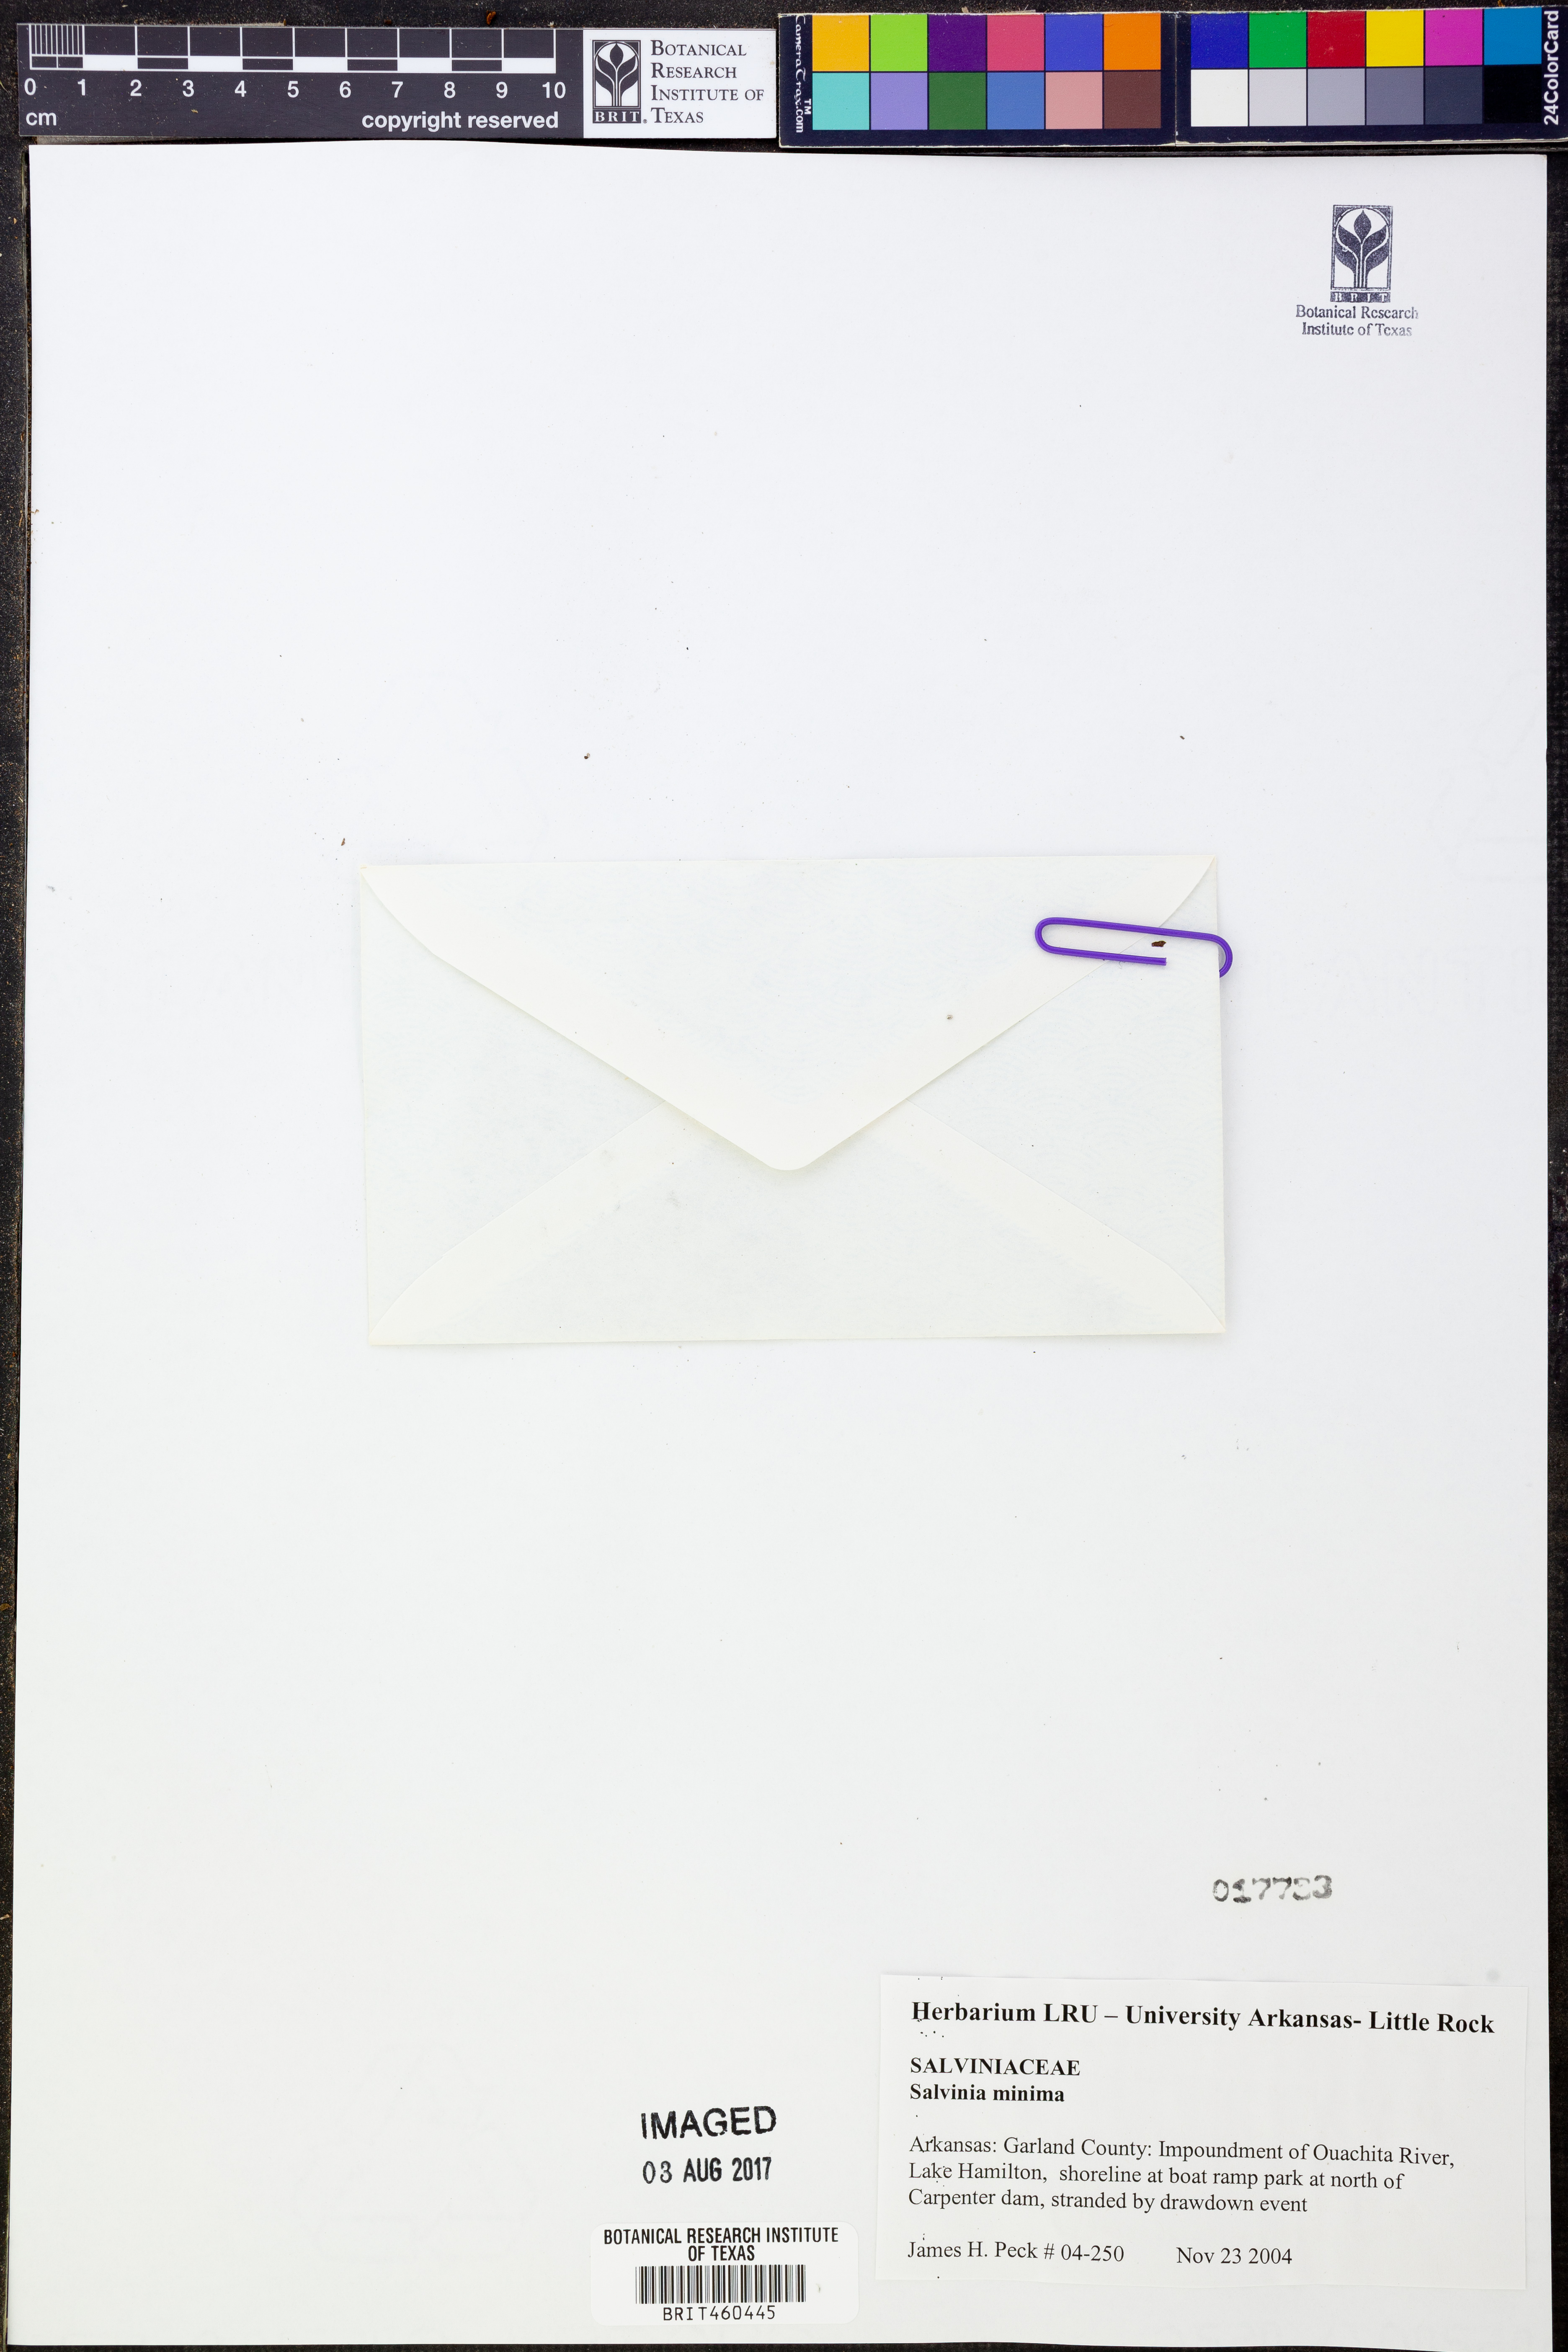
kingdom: Plantae
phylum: Tracheophyta
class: Polypodiopsida
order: Salviniales
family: Salviniaceae
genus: Salvinia
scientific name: Salvinia minima
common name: Water spangles
